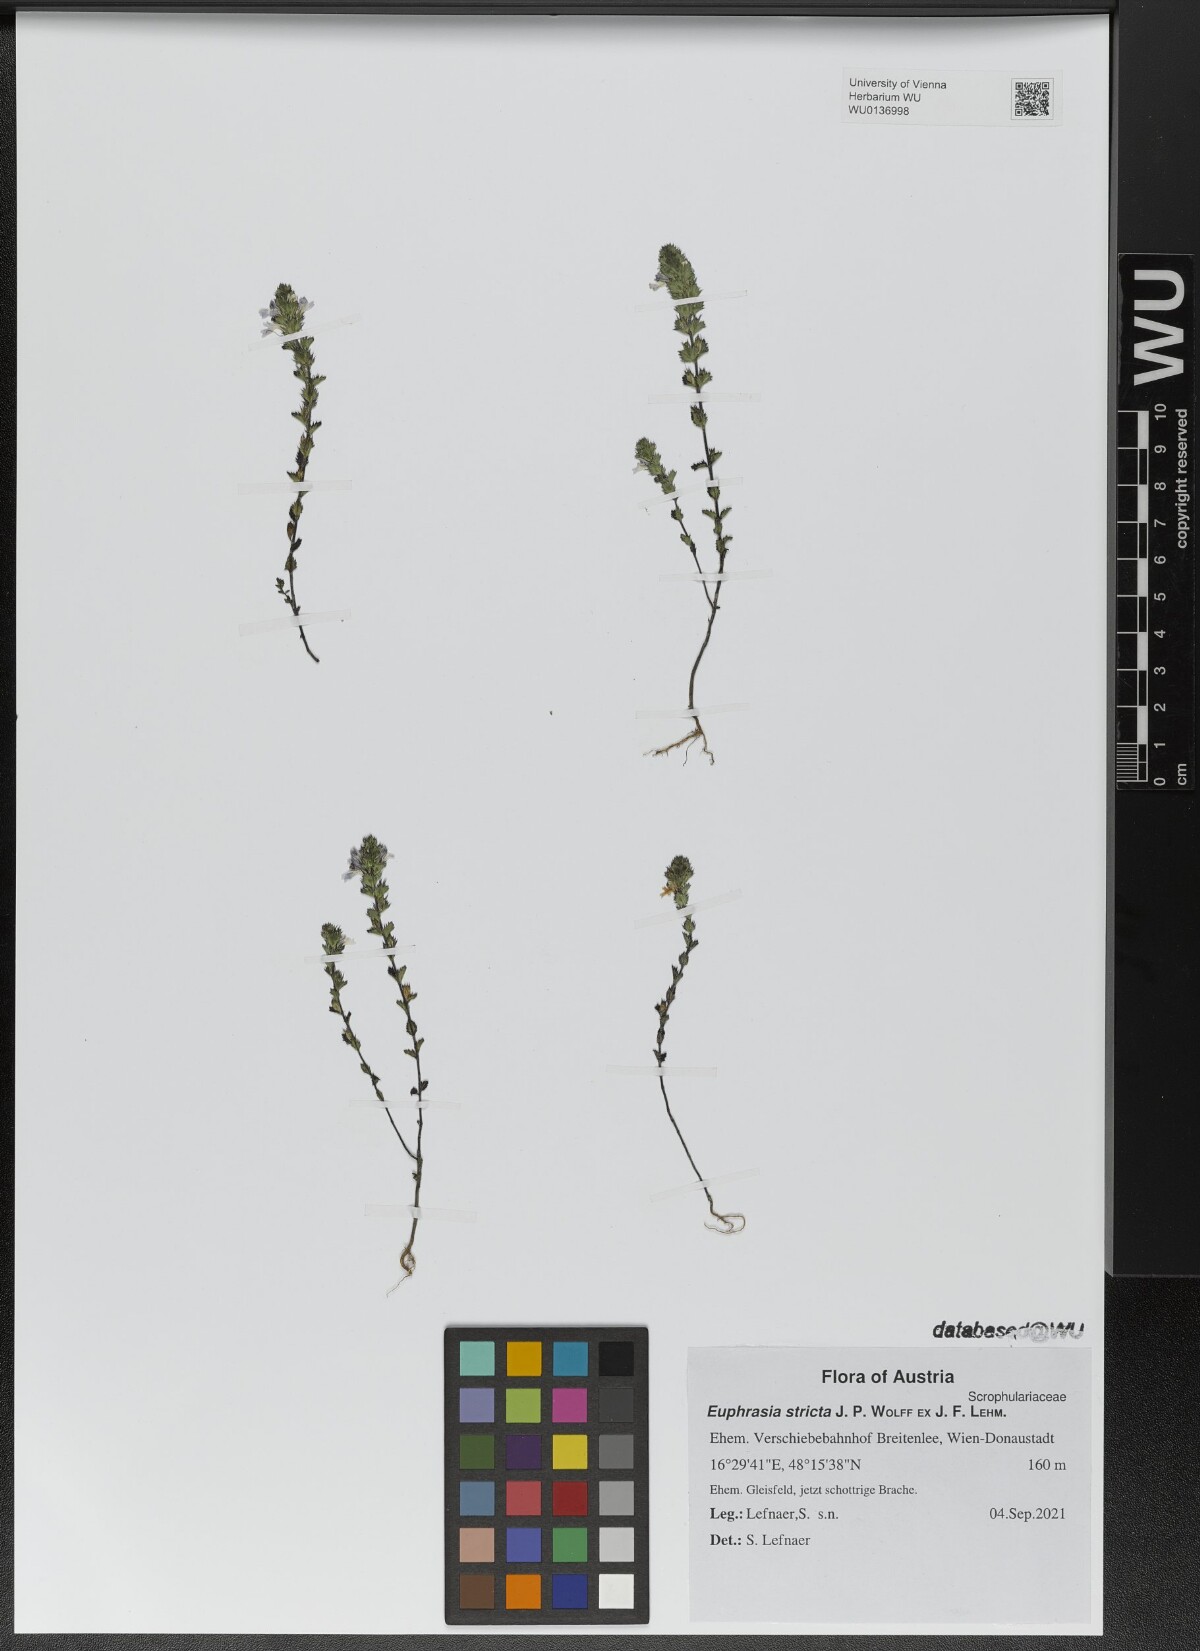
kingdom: Plantae
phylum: Tracheophyta
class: Magnoliopsida
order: Lamiales
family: Orobanchaceae
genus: Euphrasia
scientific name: Euphrasia stricta
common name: Drug eyebright
